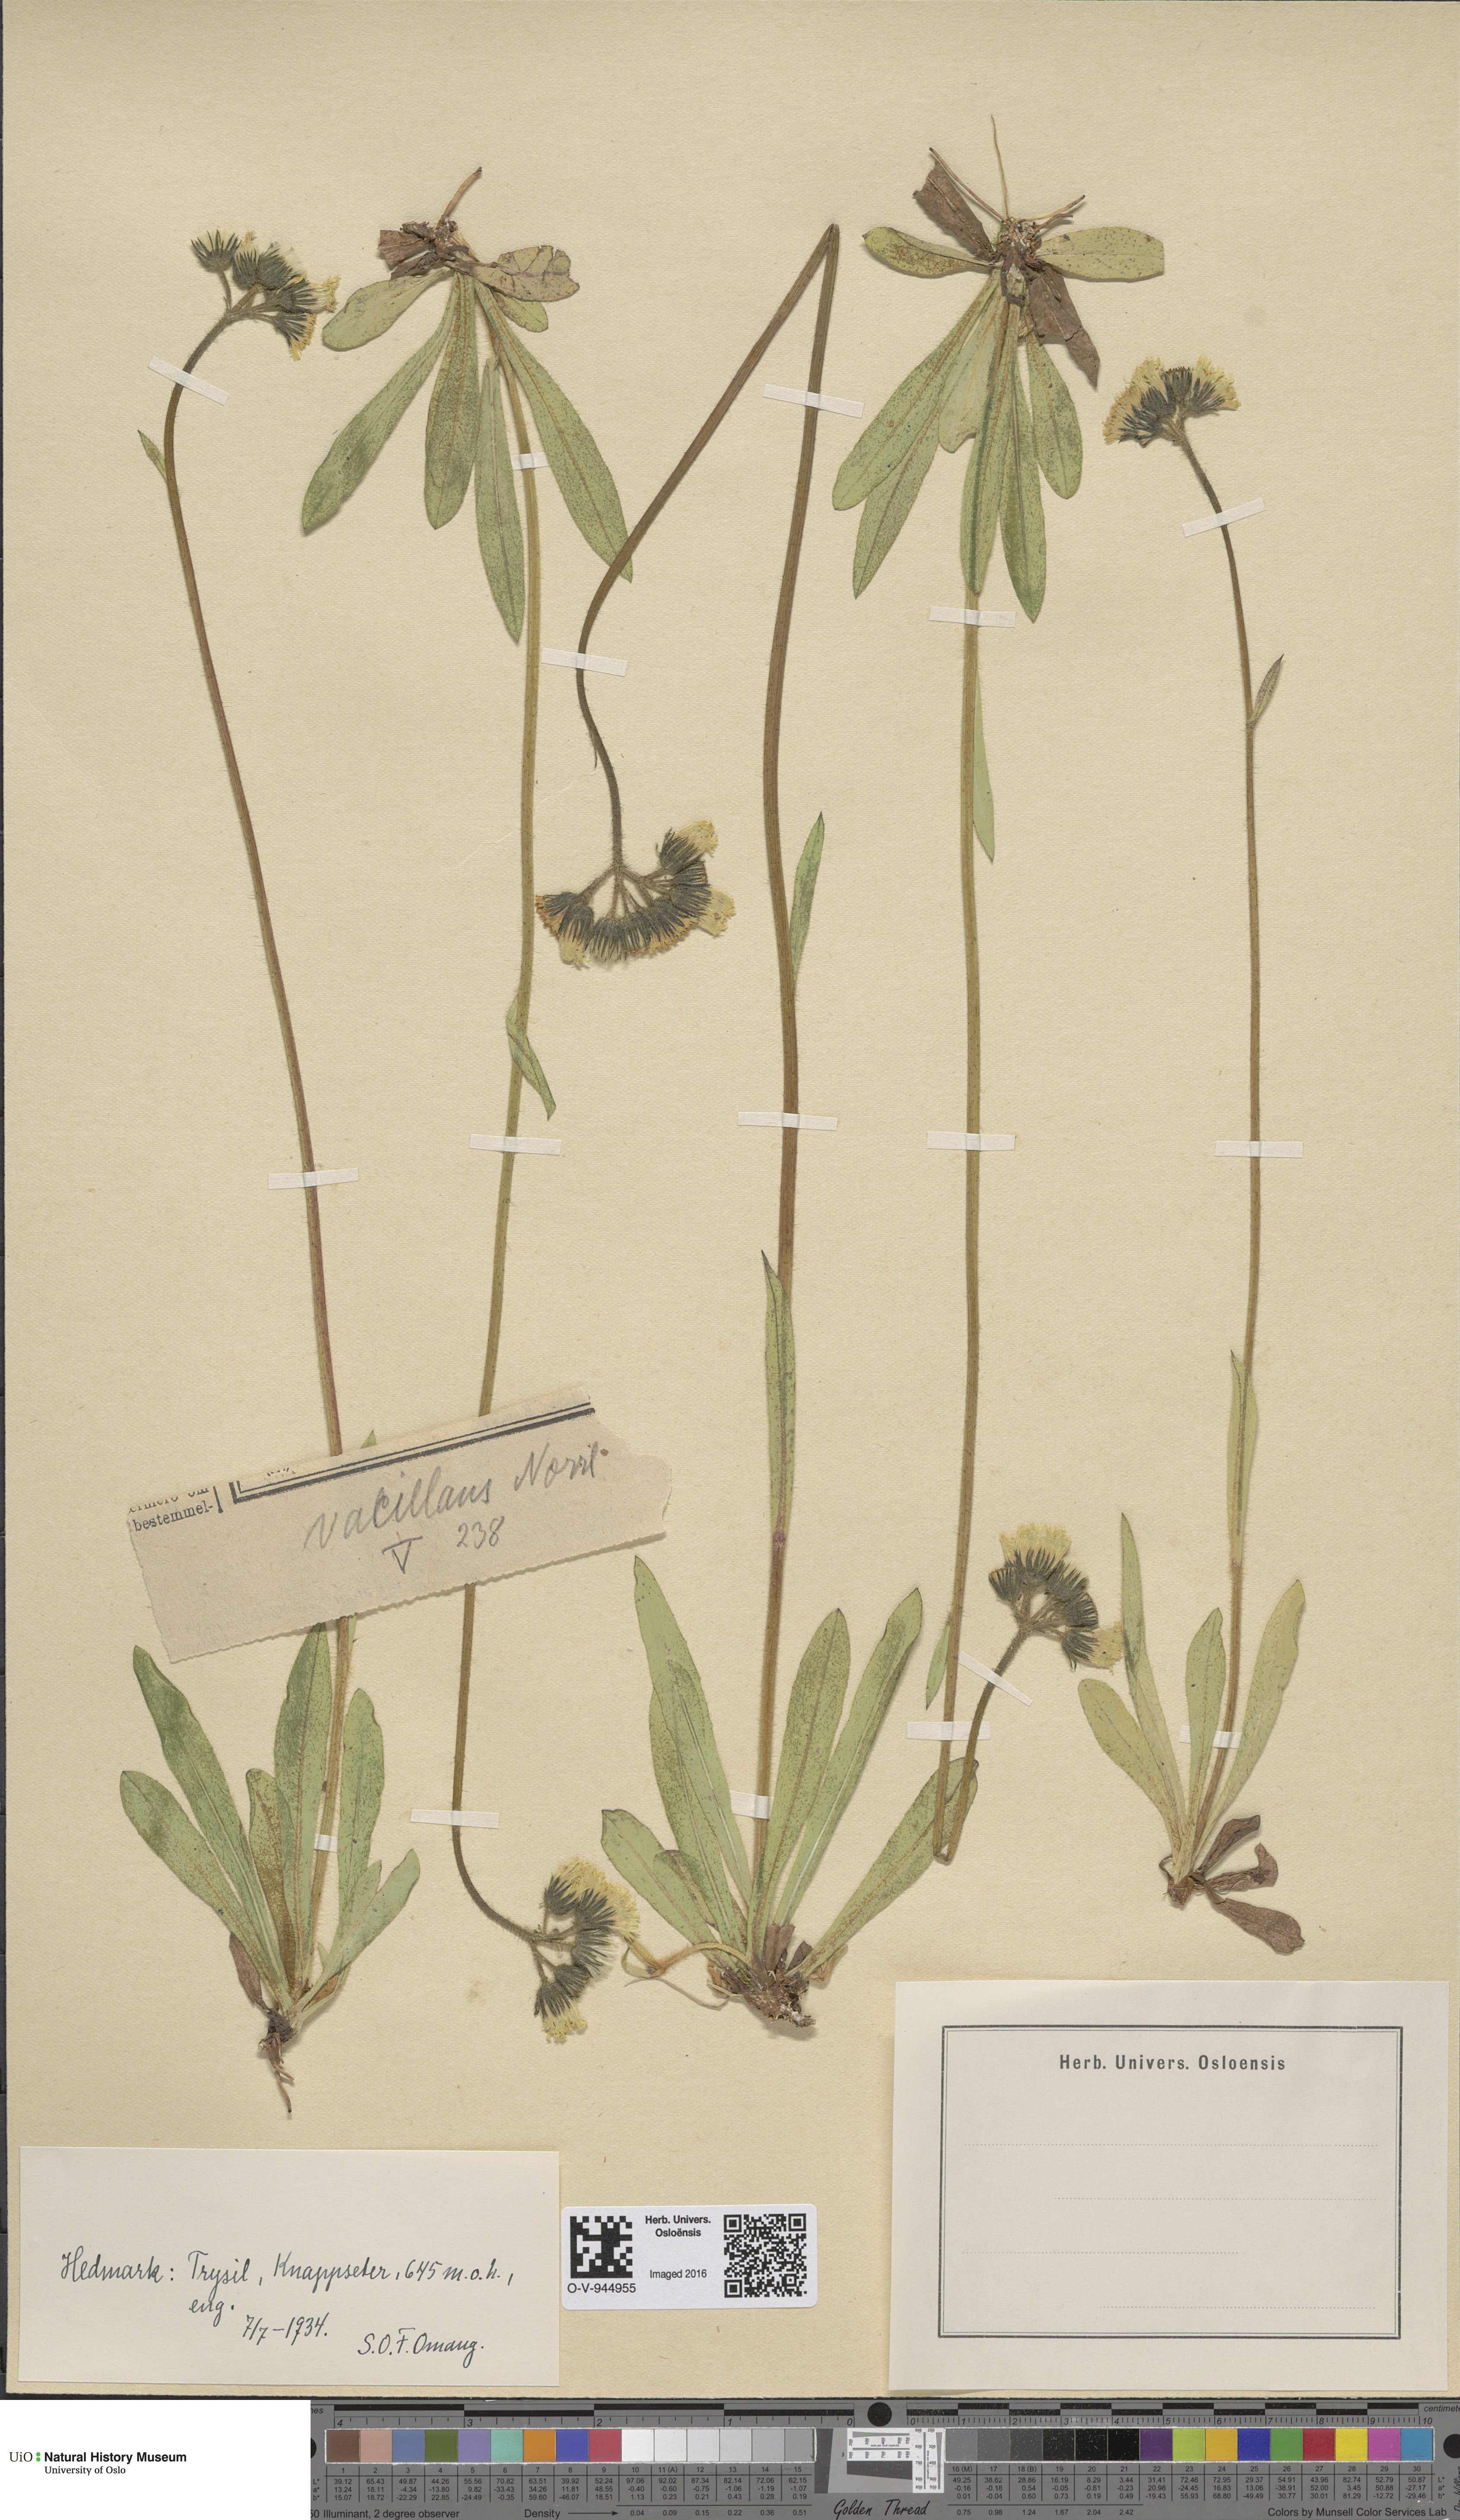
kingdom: Plantae
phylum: Tracheophyta
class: Magnoliopsida
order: Asterales
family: Asteraceae
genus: Pilosella
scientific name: Pilosella cymosa
